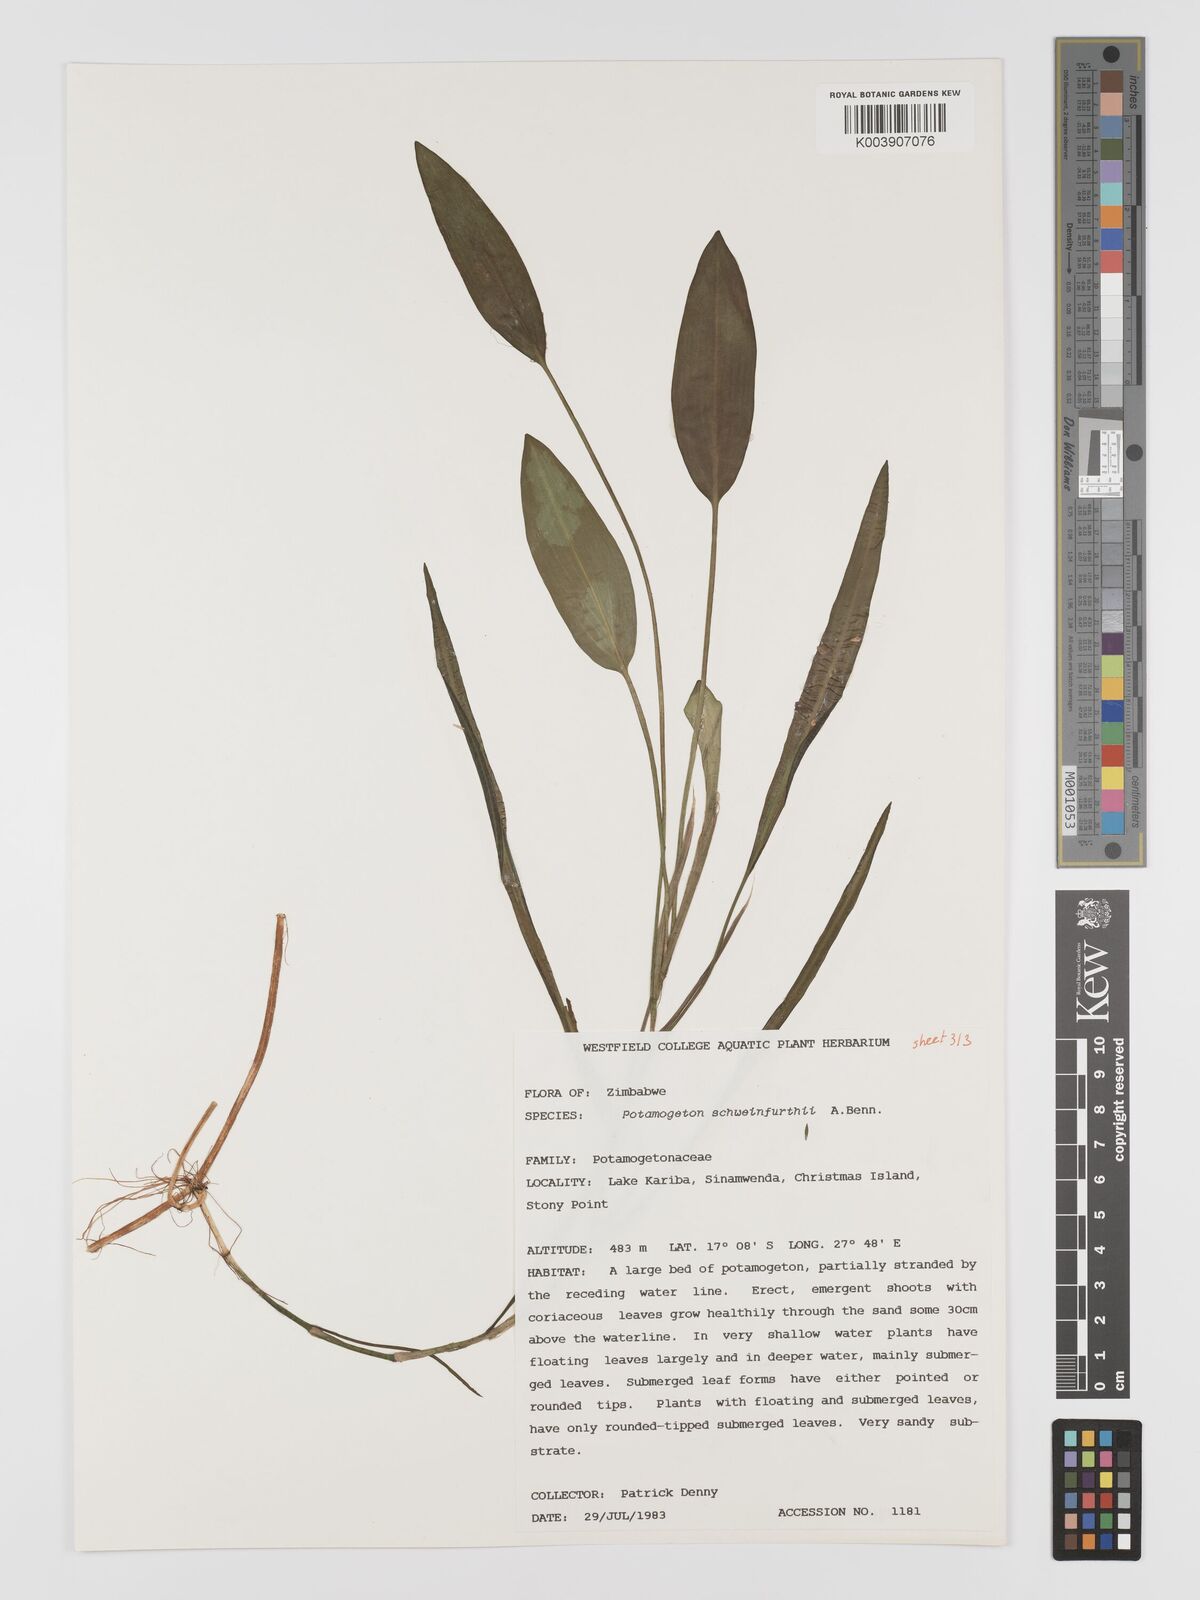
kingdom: Plantae
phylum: Tracheophyta
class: Liliopsida
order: Alismatales
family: Potamogetonaceae
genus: Potamogeton
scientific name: Potamogeton schweinfurthii
